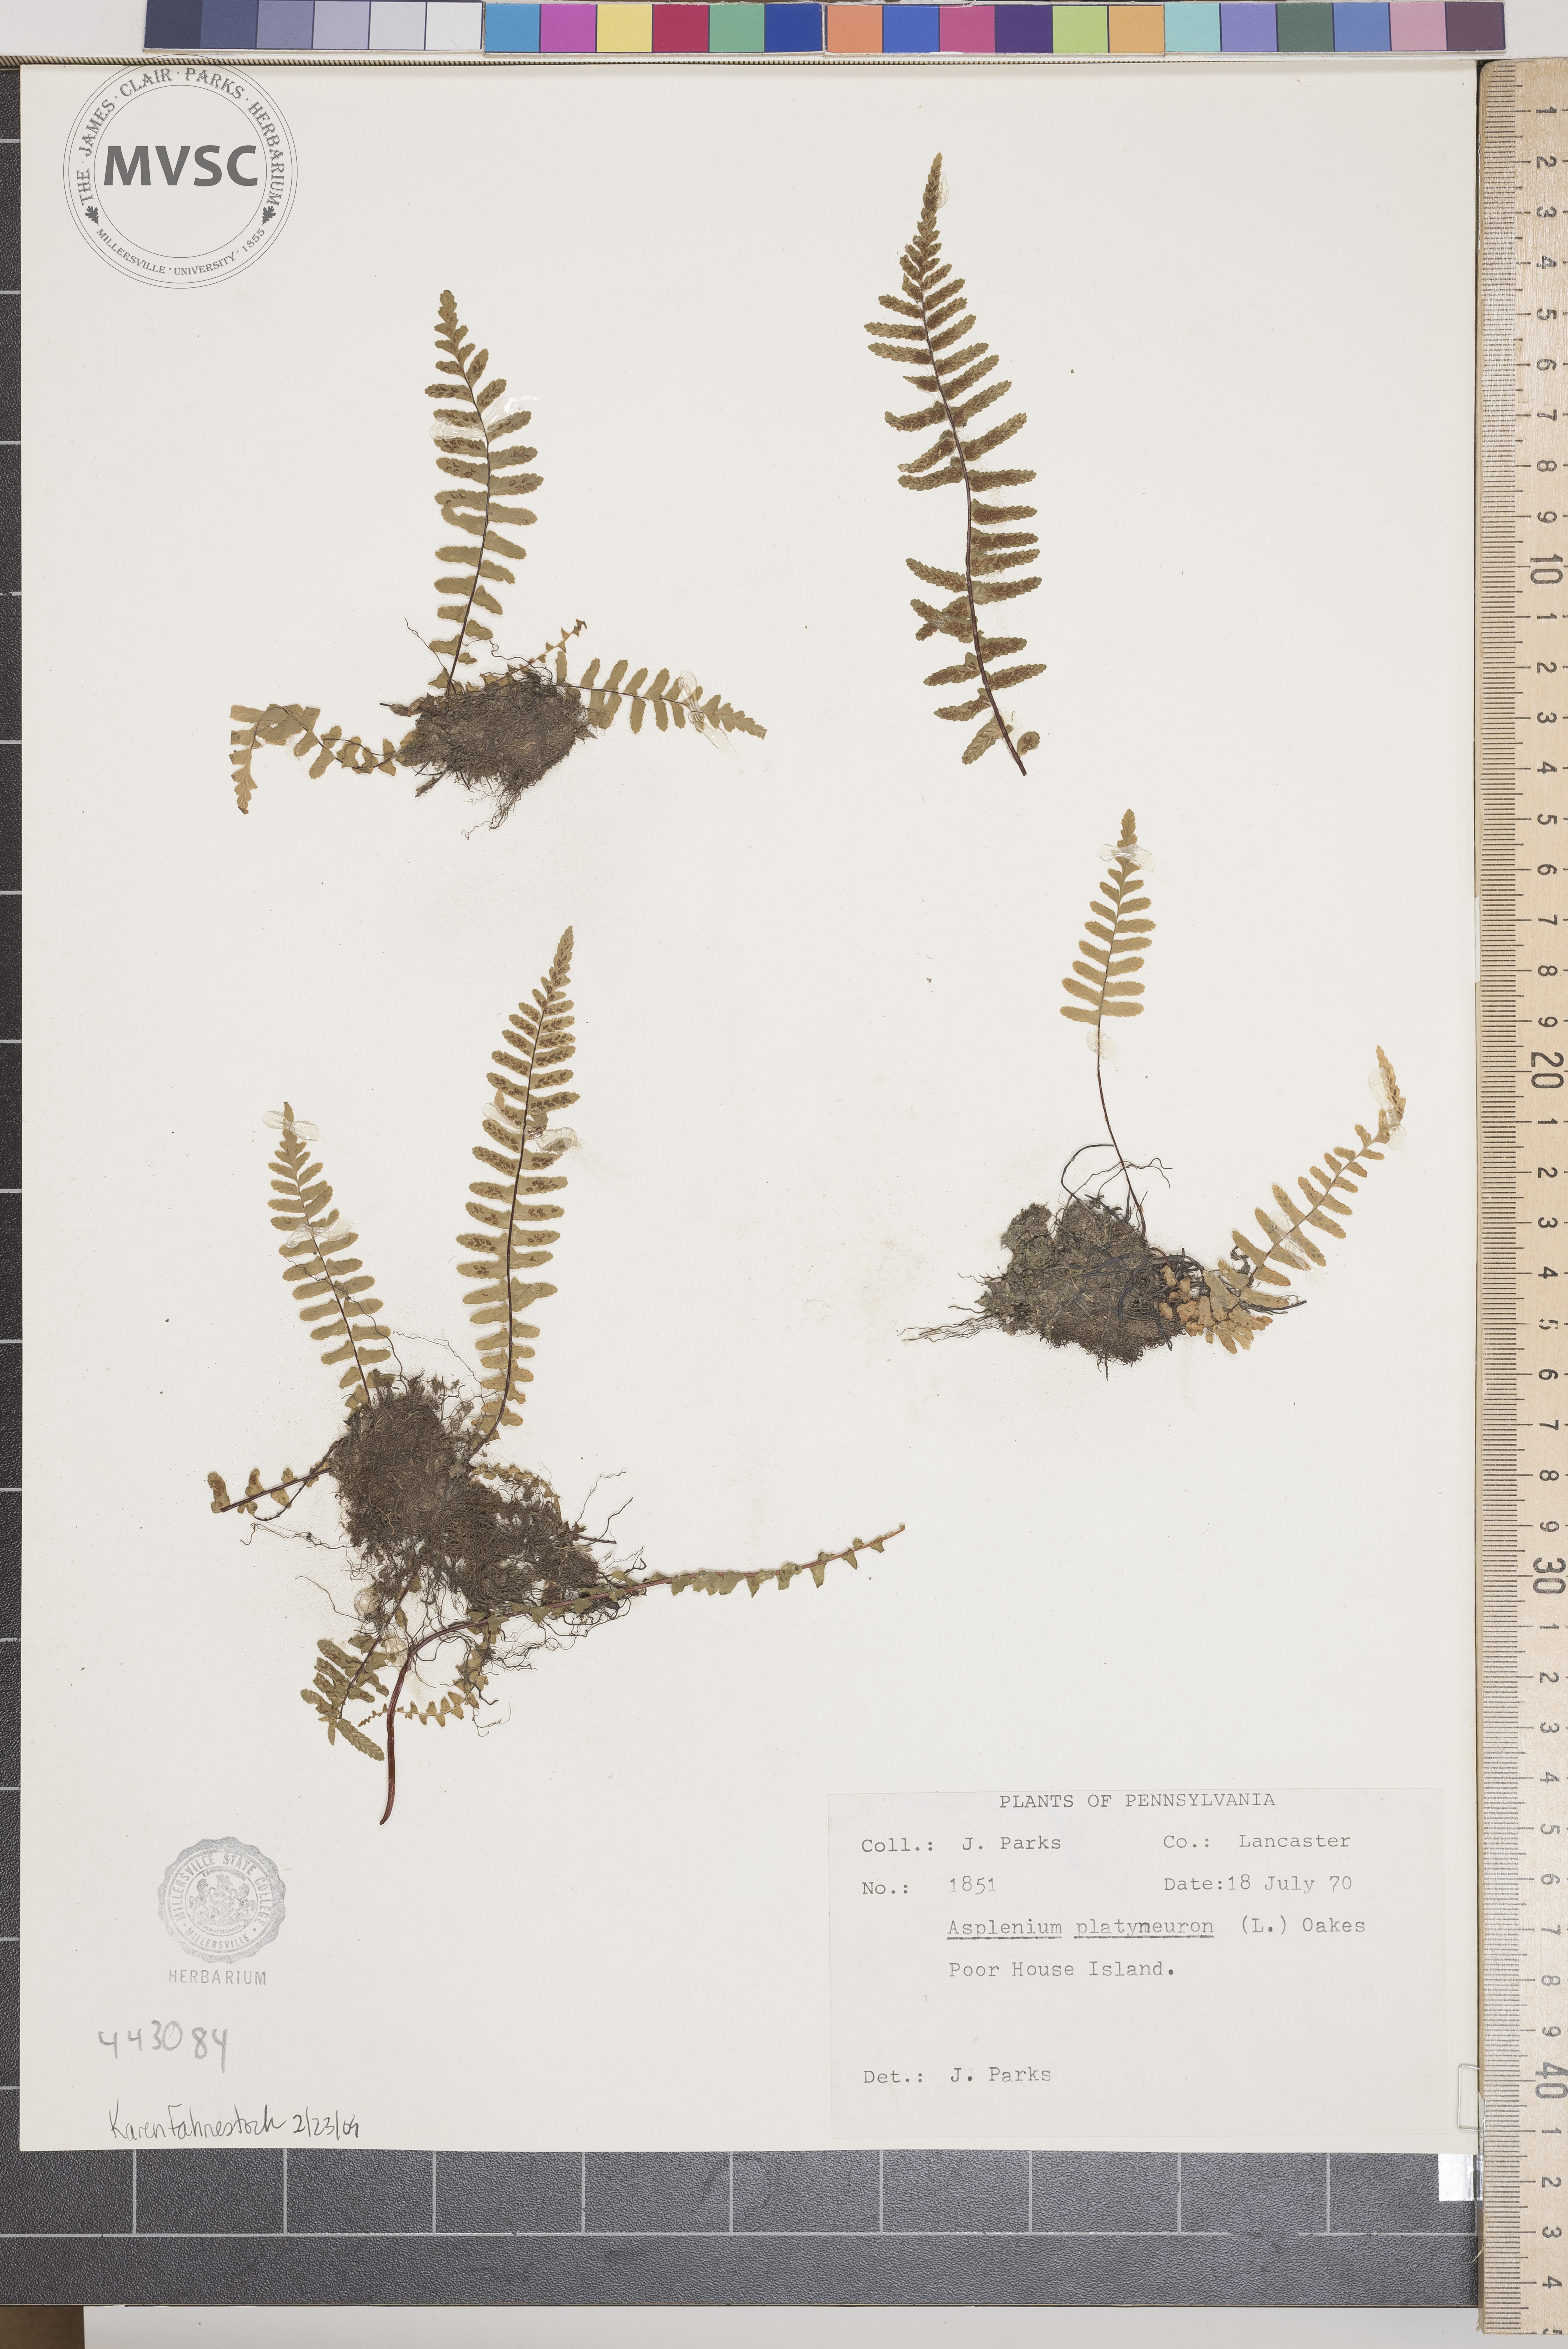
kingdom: Plantae
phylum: Tracheophyta
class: Polypodiopsida
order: Polypodiales
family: Aspleniaceae
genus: Asplenium
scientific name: Asplenium platyneuron
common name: Ebony spleenwort
